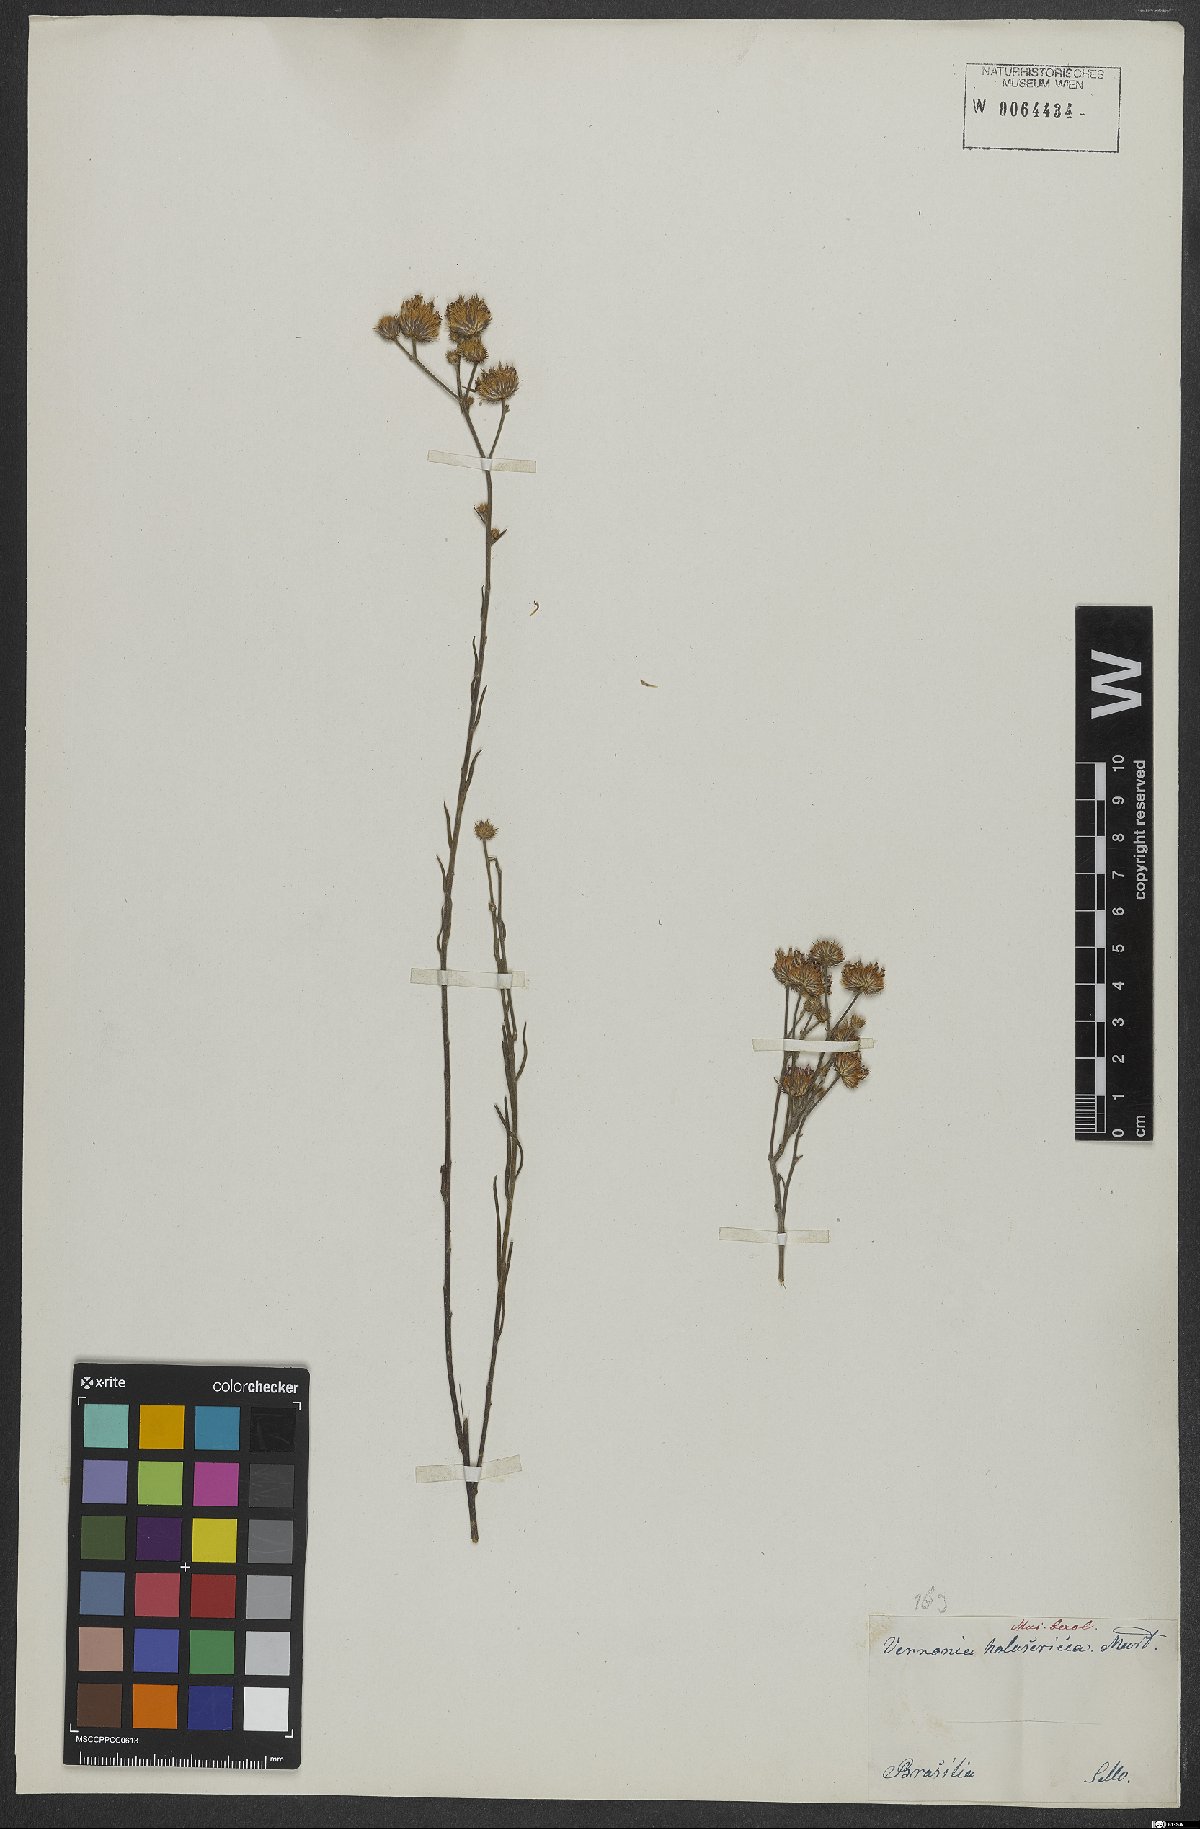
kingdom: Plantae
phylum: Tracheophyta
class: Magnoliopsida
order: Asterales
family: Asteraceae
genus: Echinocoryne
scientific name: Echinocoryne holosericea
